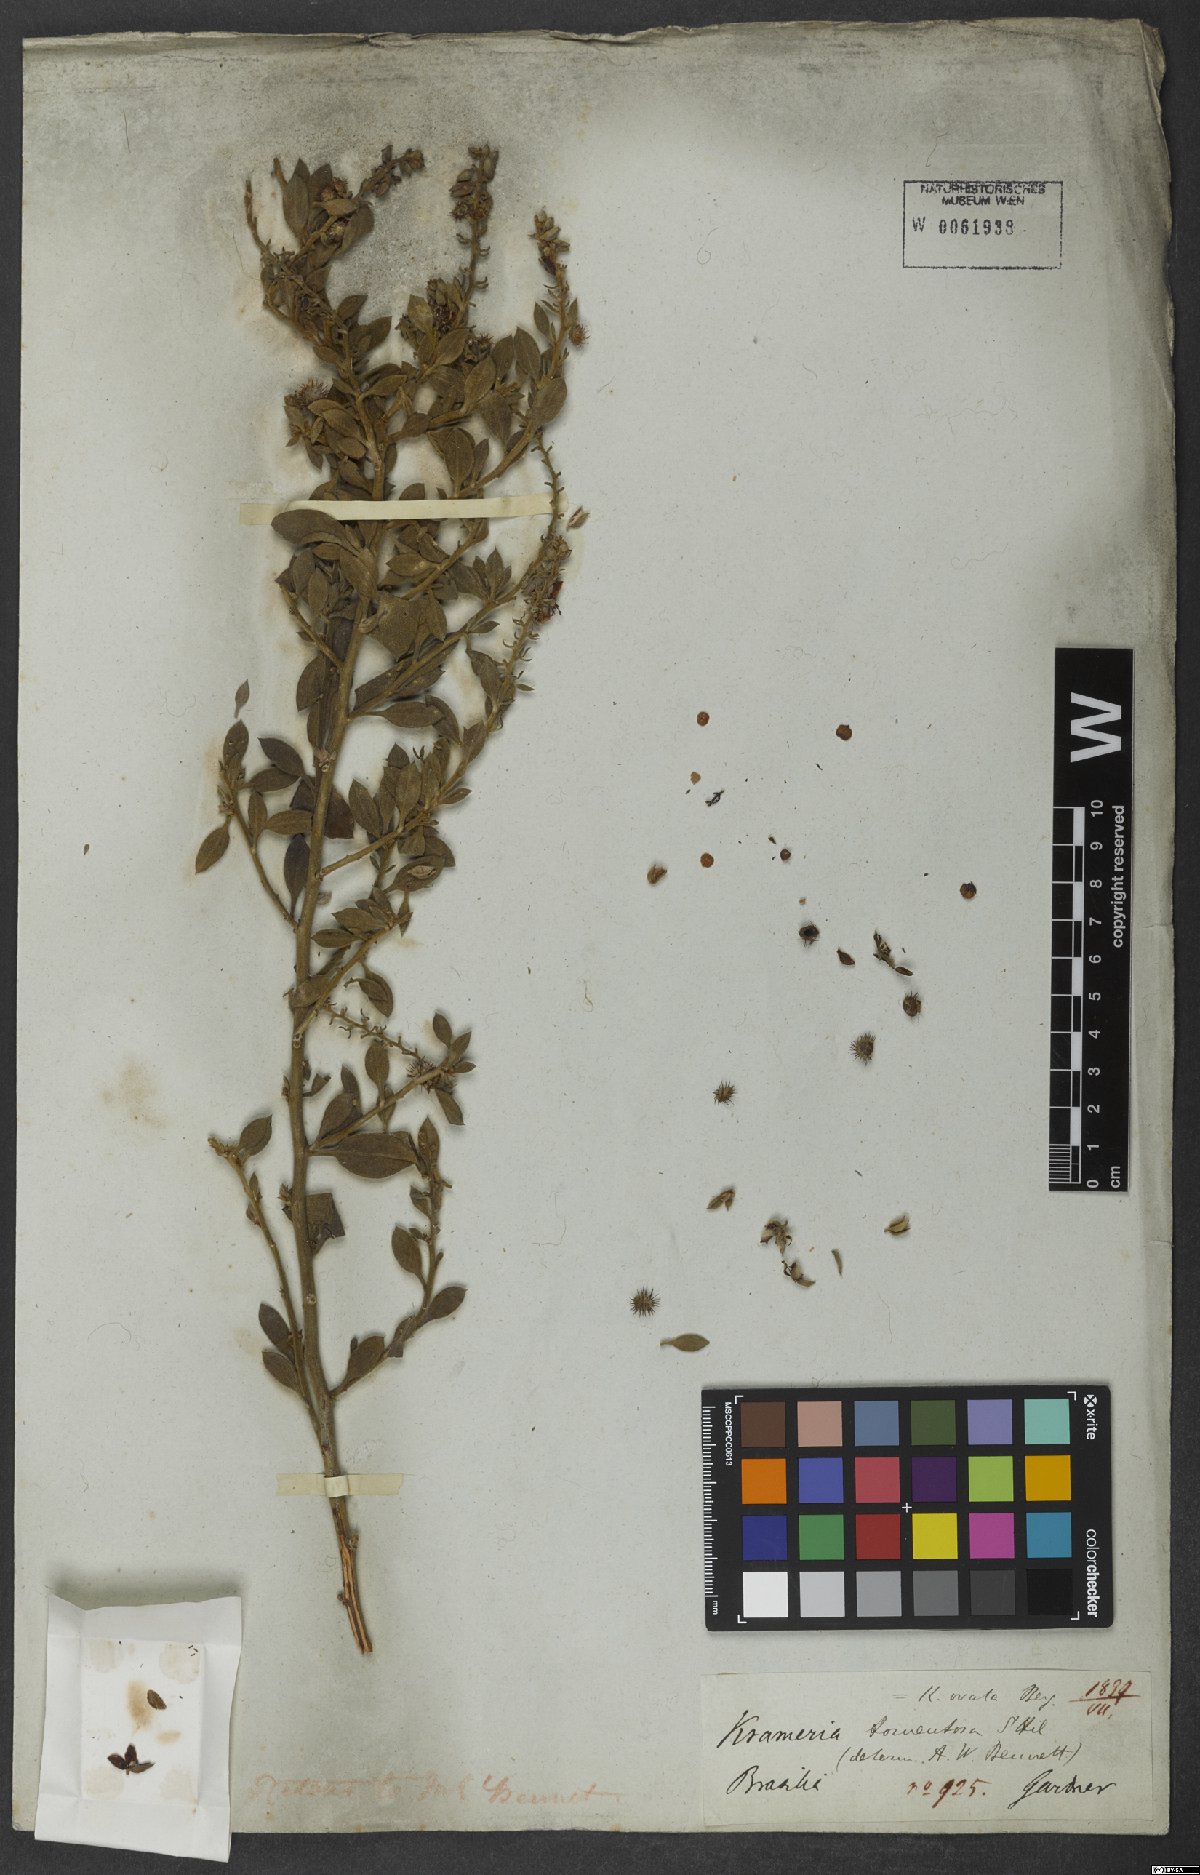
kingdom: Plantae
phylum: Tracheophyta
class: Magnoliopsida
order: Zygophyllales
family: Krameriaceae
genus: Krameria
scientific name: Krameria tomentosa
